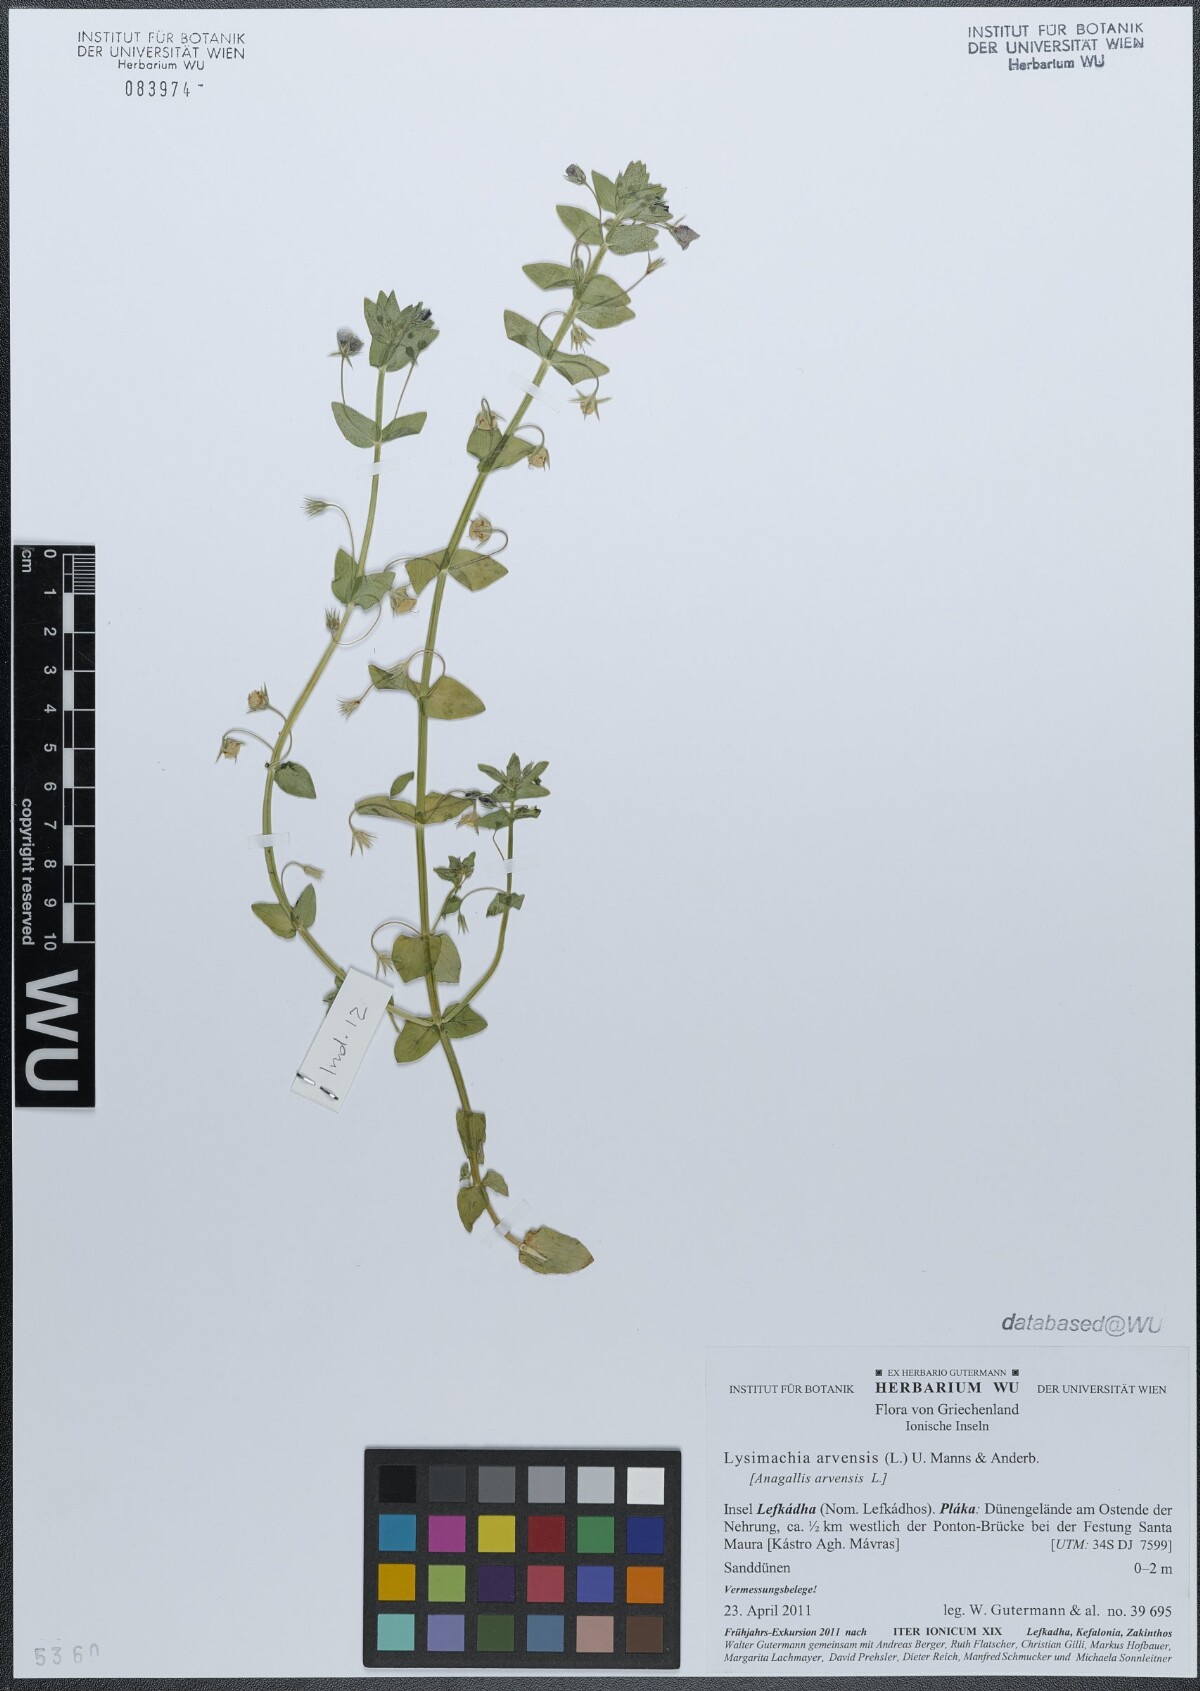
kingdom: Plantae
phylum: Tracheophyta
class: Magnoliopsida
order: Ericales
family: Primulaceae
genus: Lysimachia
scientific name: Lysimachia arvensis
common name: Scarlet pimpernel
